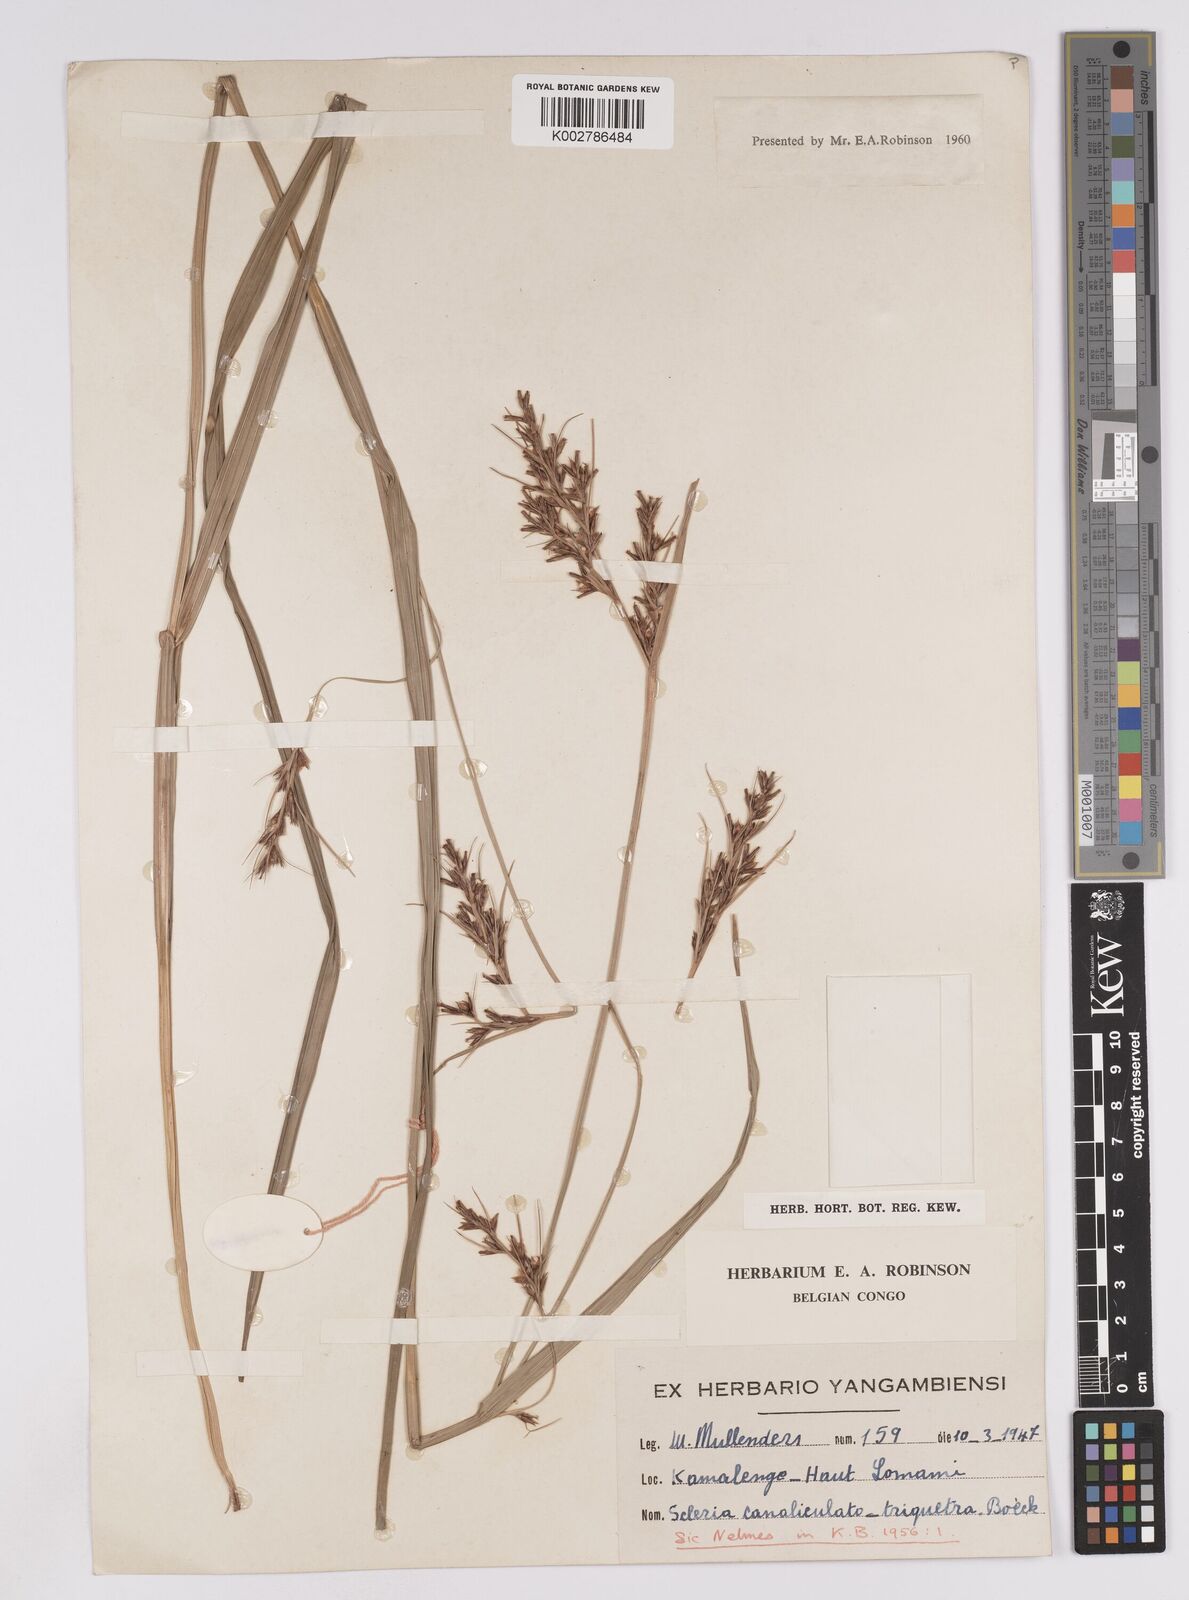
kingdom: Plantae
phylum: Tracheophyta
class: Liliopsida
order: Poales
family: Cyperaceae
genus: Scleria
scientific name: Scleria lagoensis
